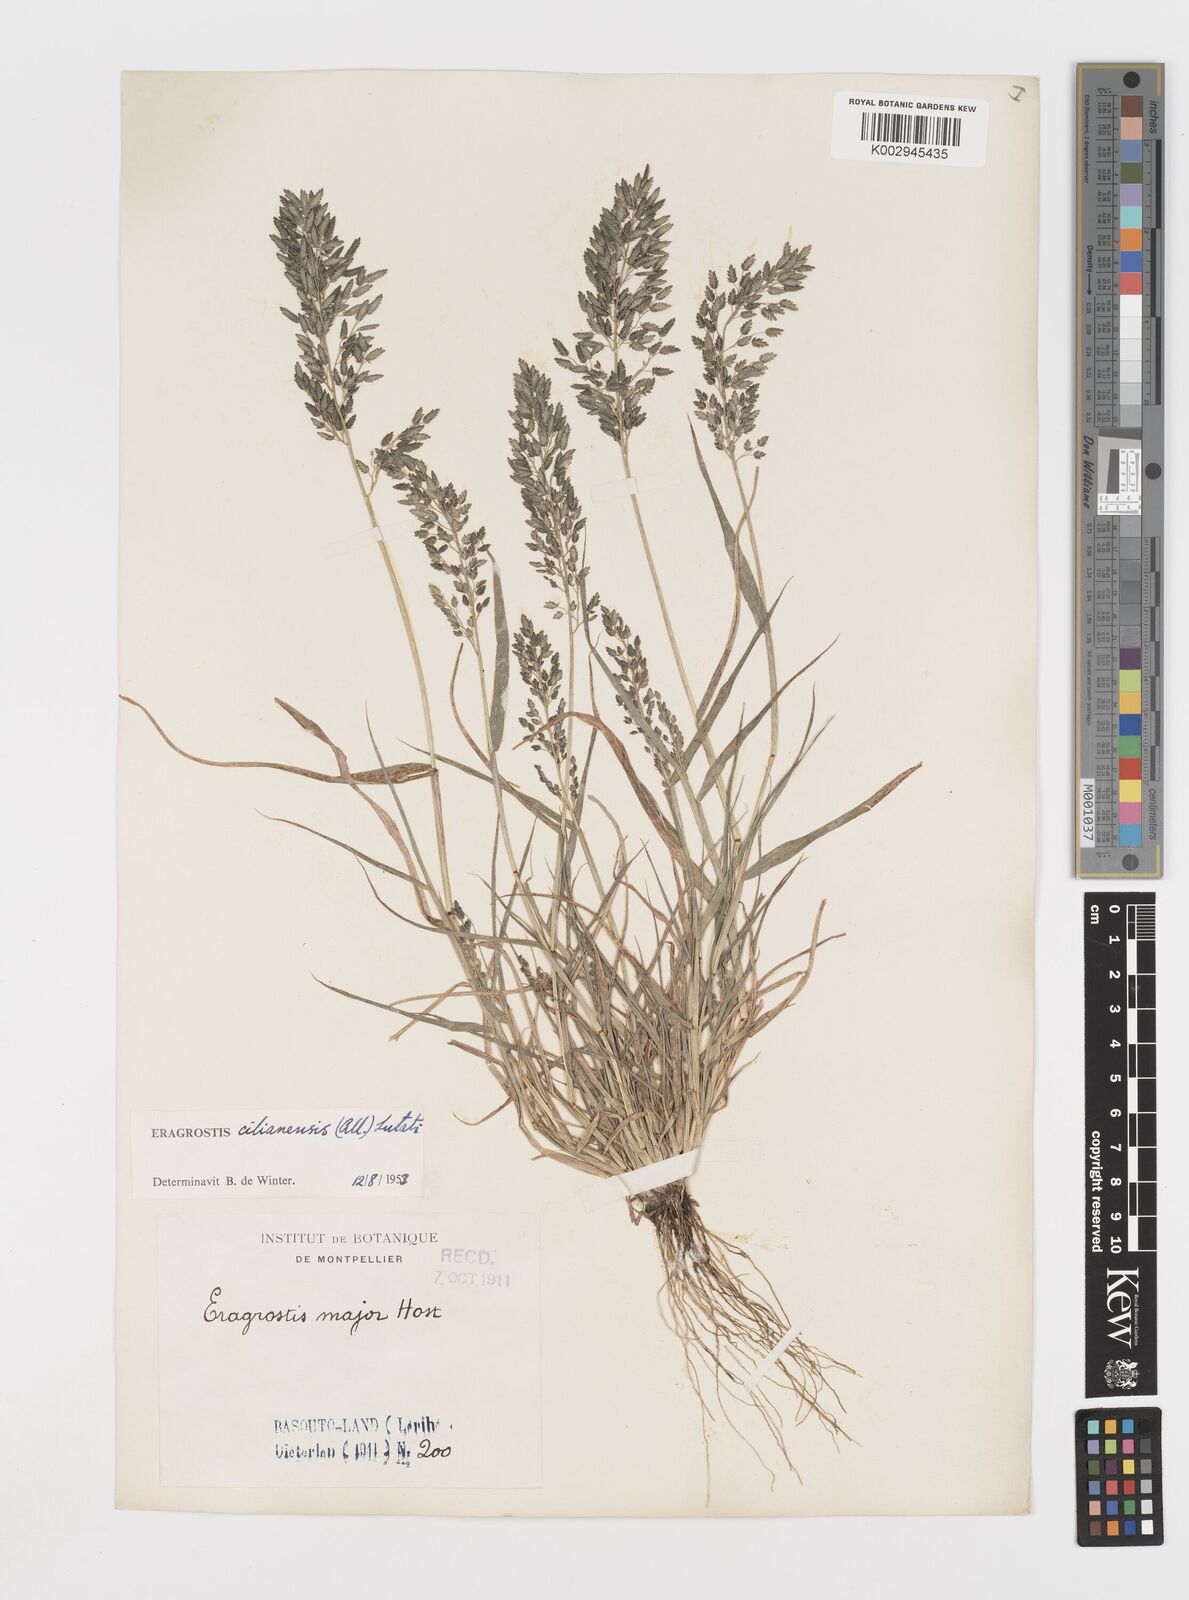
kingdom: Plantae
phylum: Tracheophyta
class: Liliopsida
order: Poales
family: Poaceae
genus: Eragrostis
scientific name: Eragrostis cilianensis
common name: Stinkgrass
